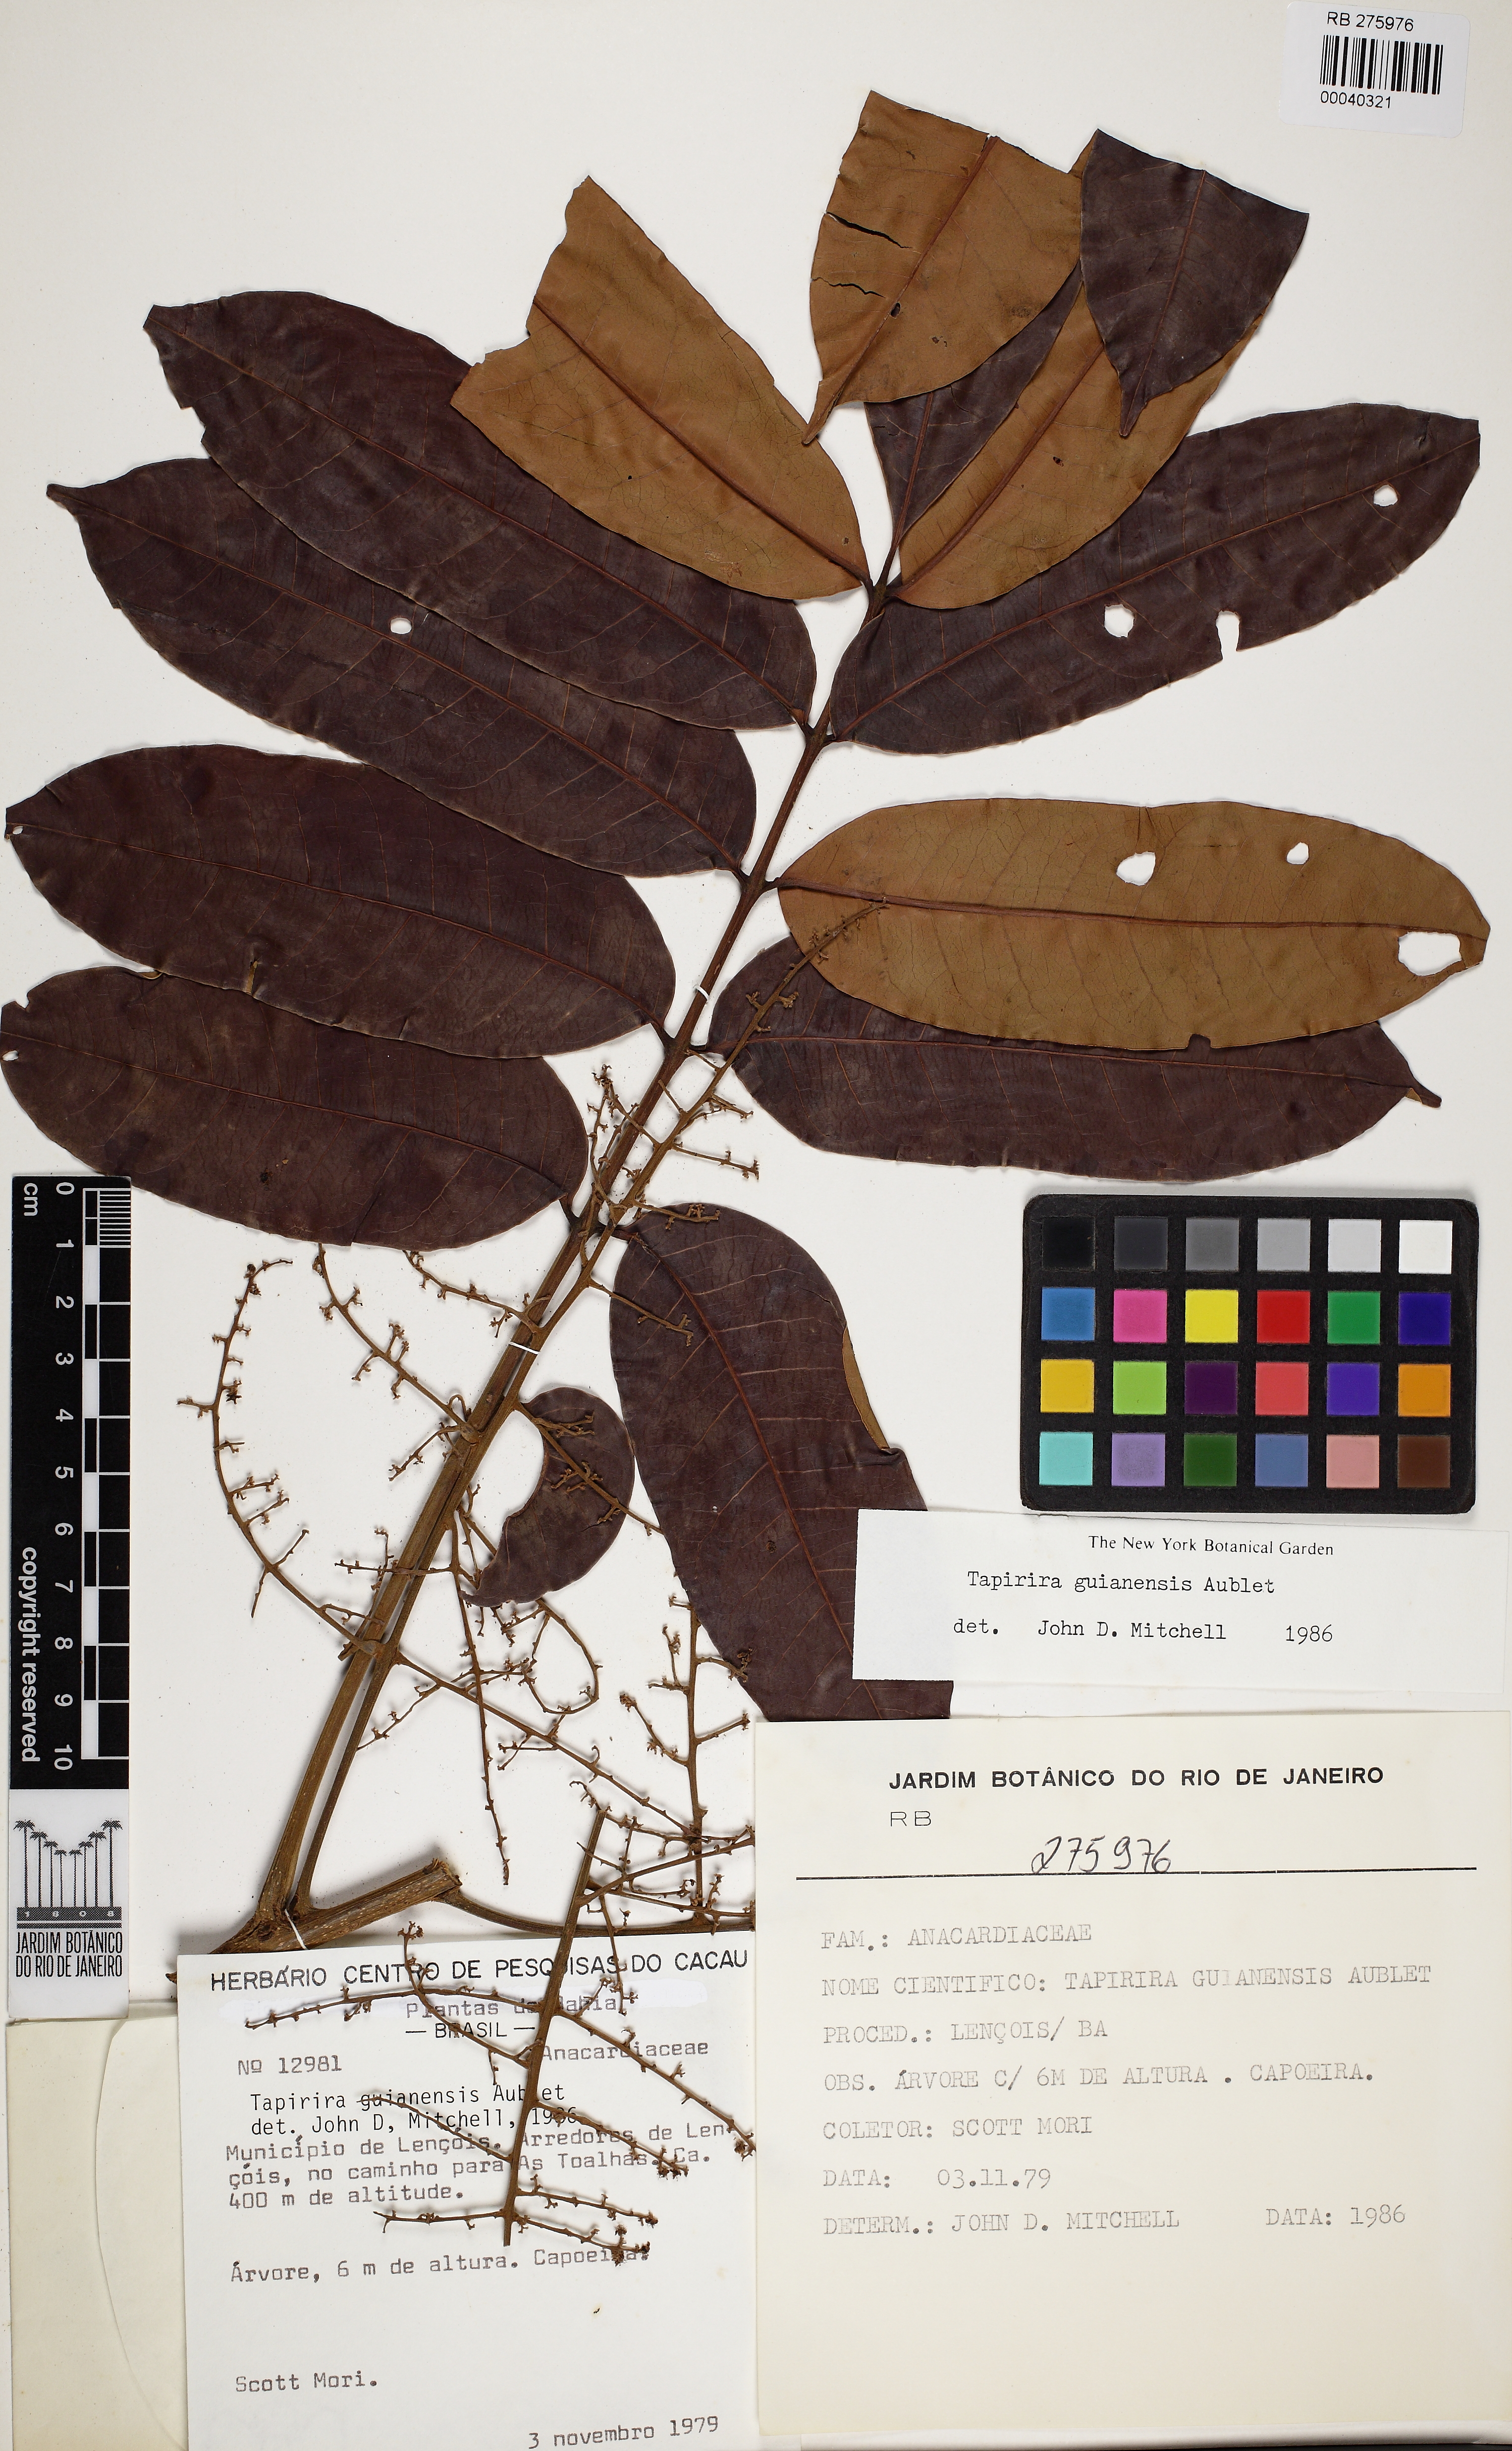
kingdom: Plantae
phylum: Tracheophyta
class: Magnoliopsida
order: Sapindales
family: Anacardiaceae
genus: Tapirira
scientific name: Tapirira guianensis
